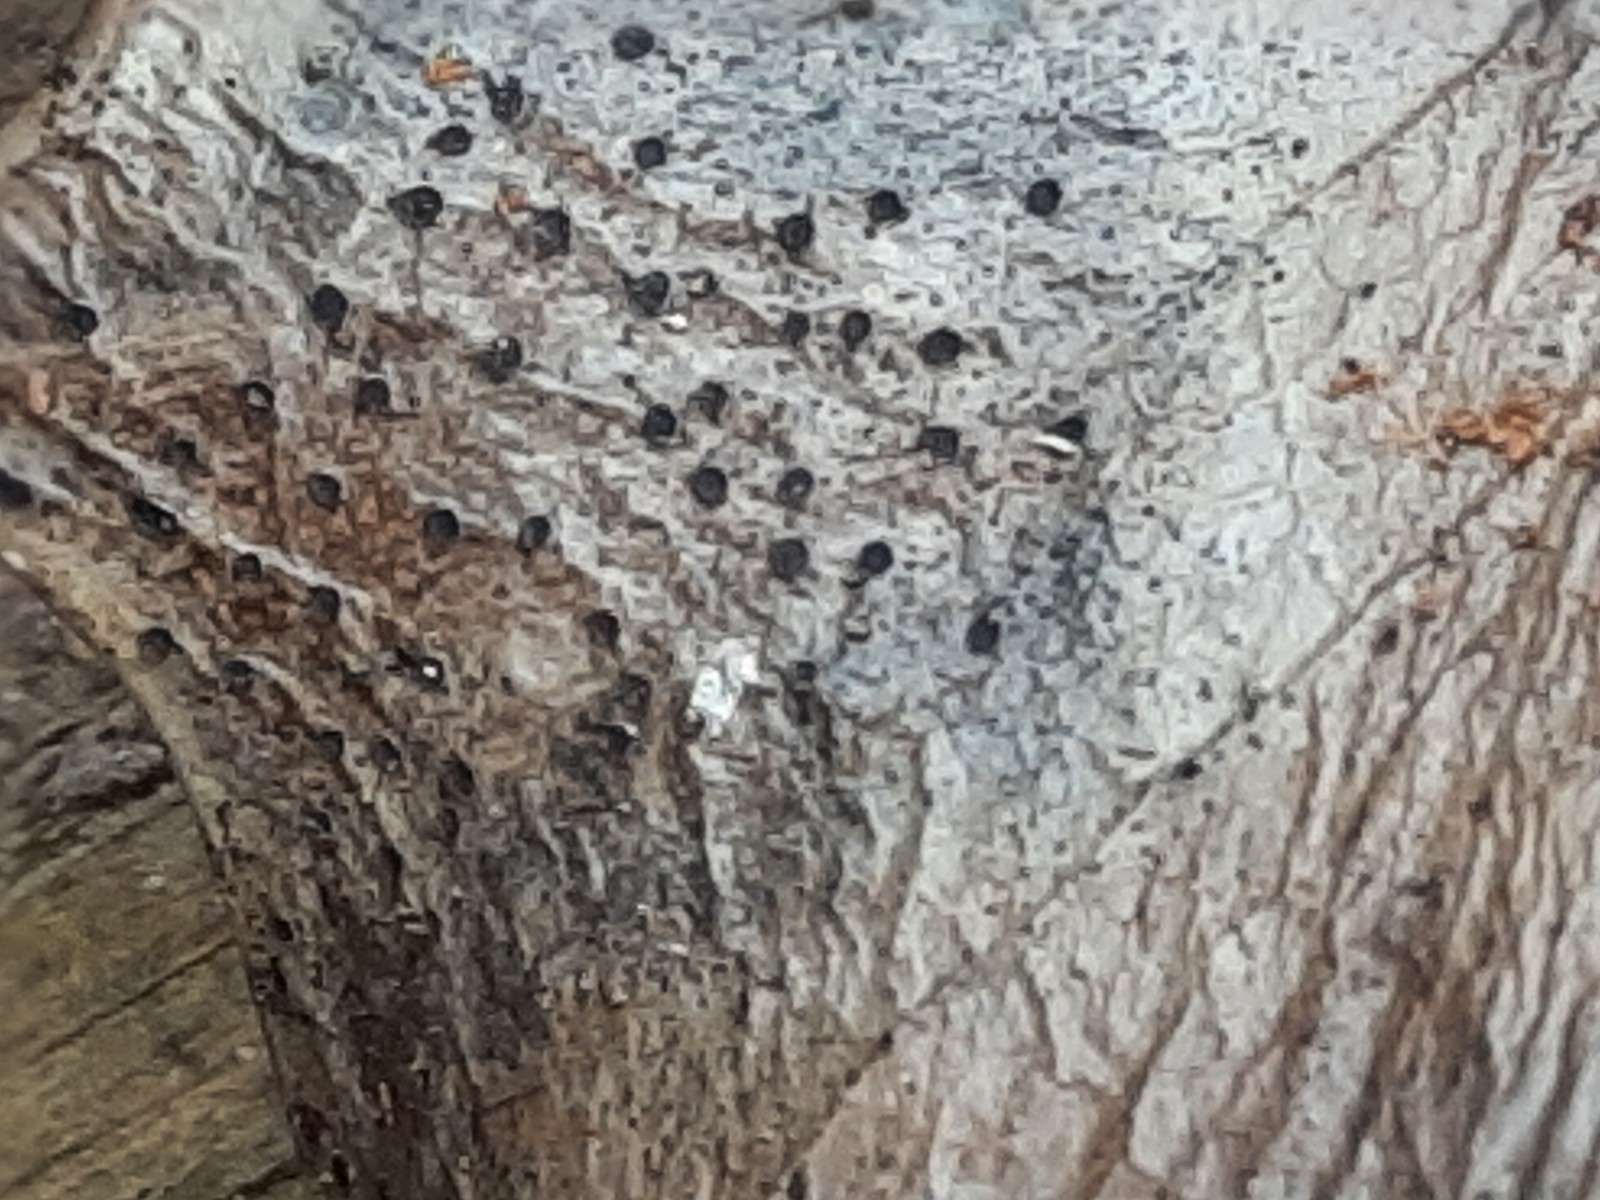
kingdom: Fungi
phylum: Ascomycota
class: Leotiomycetes
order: Helotiales
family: Cenangiaceae
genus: Trochila
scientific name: Trochila ilicina
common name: kristtorn-lågskive
